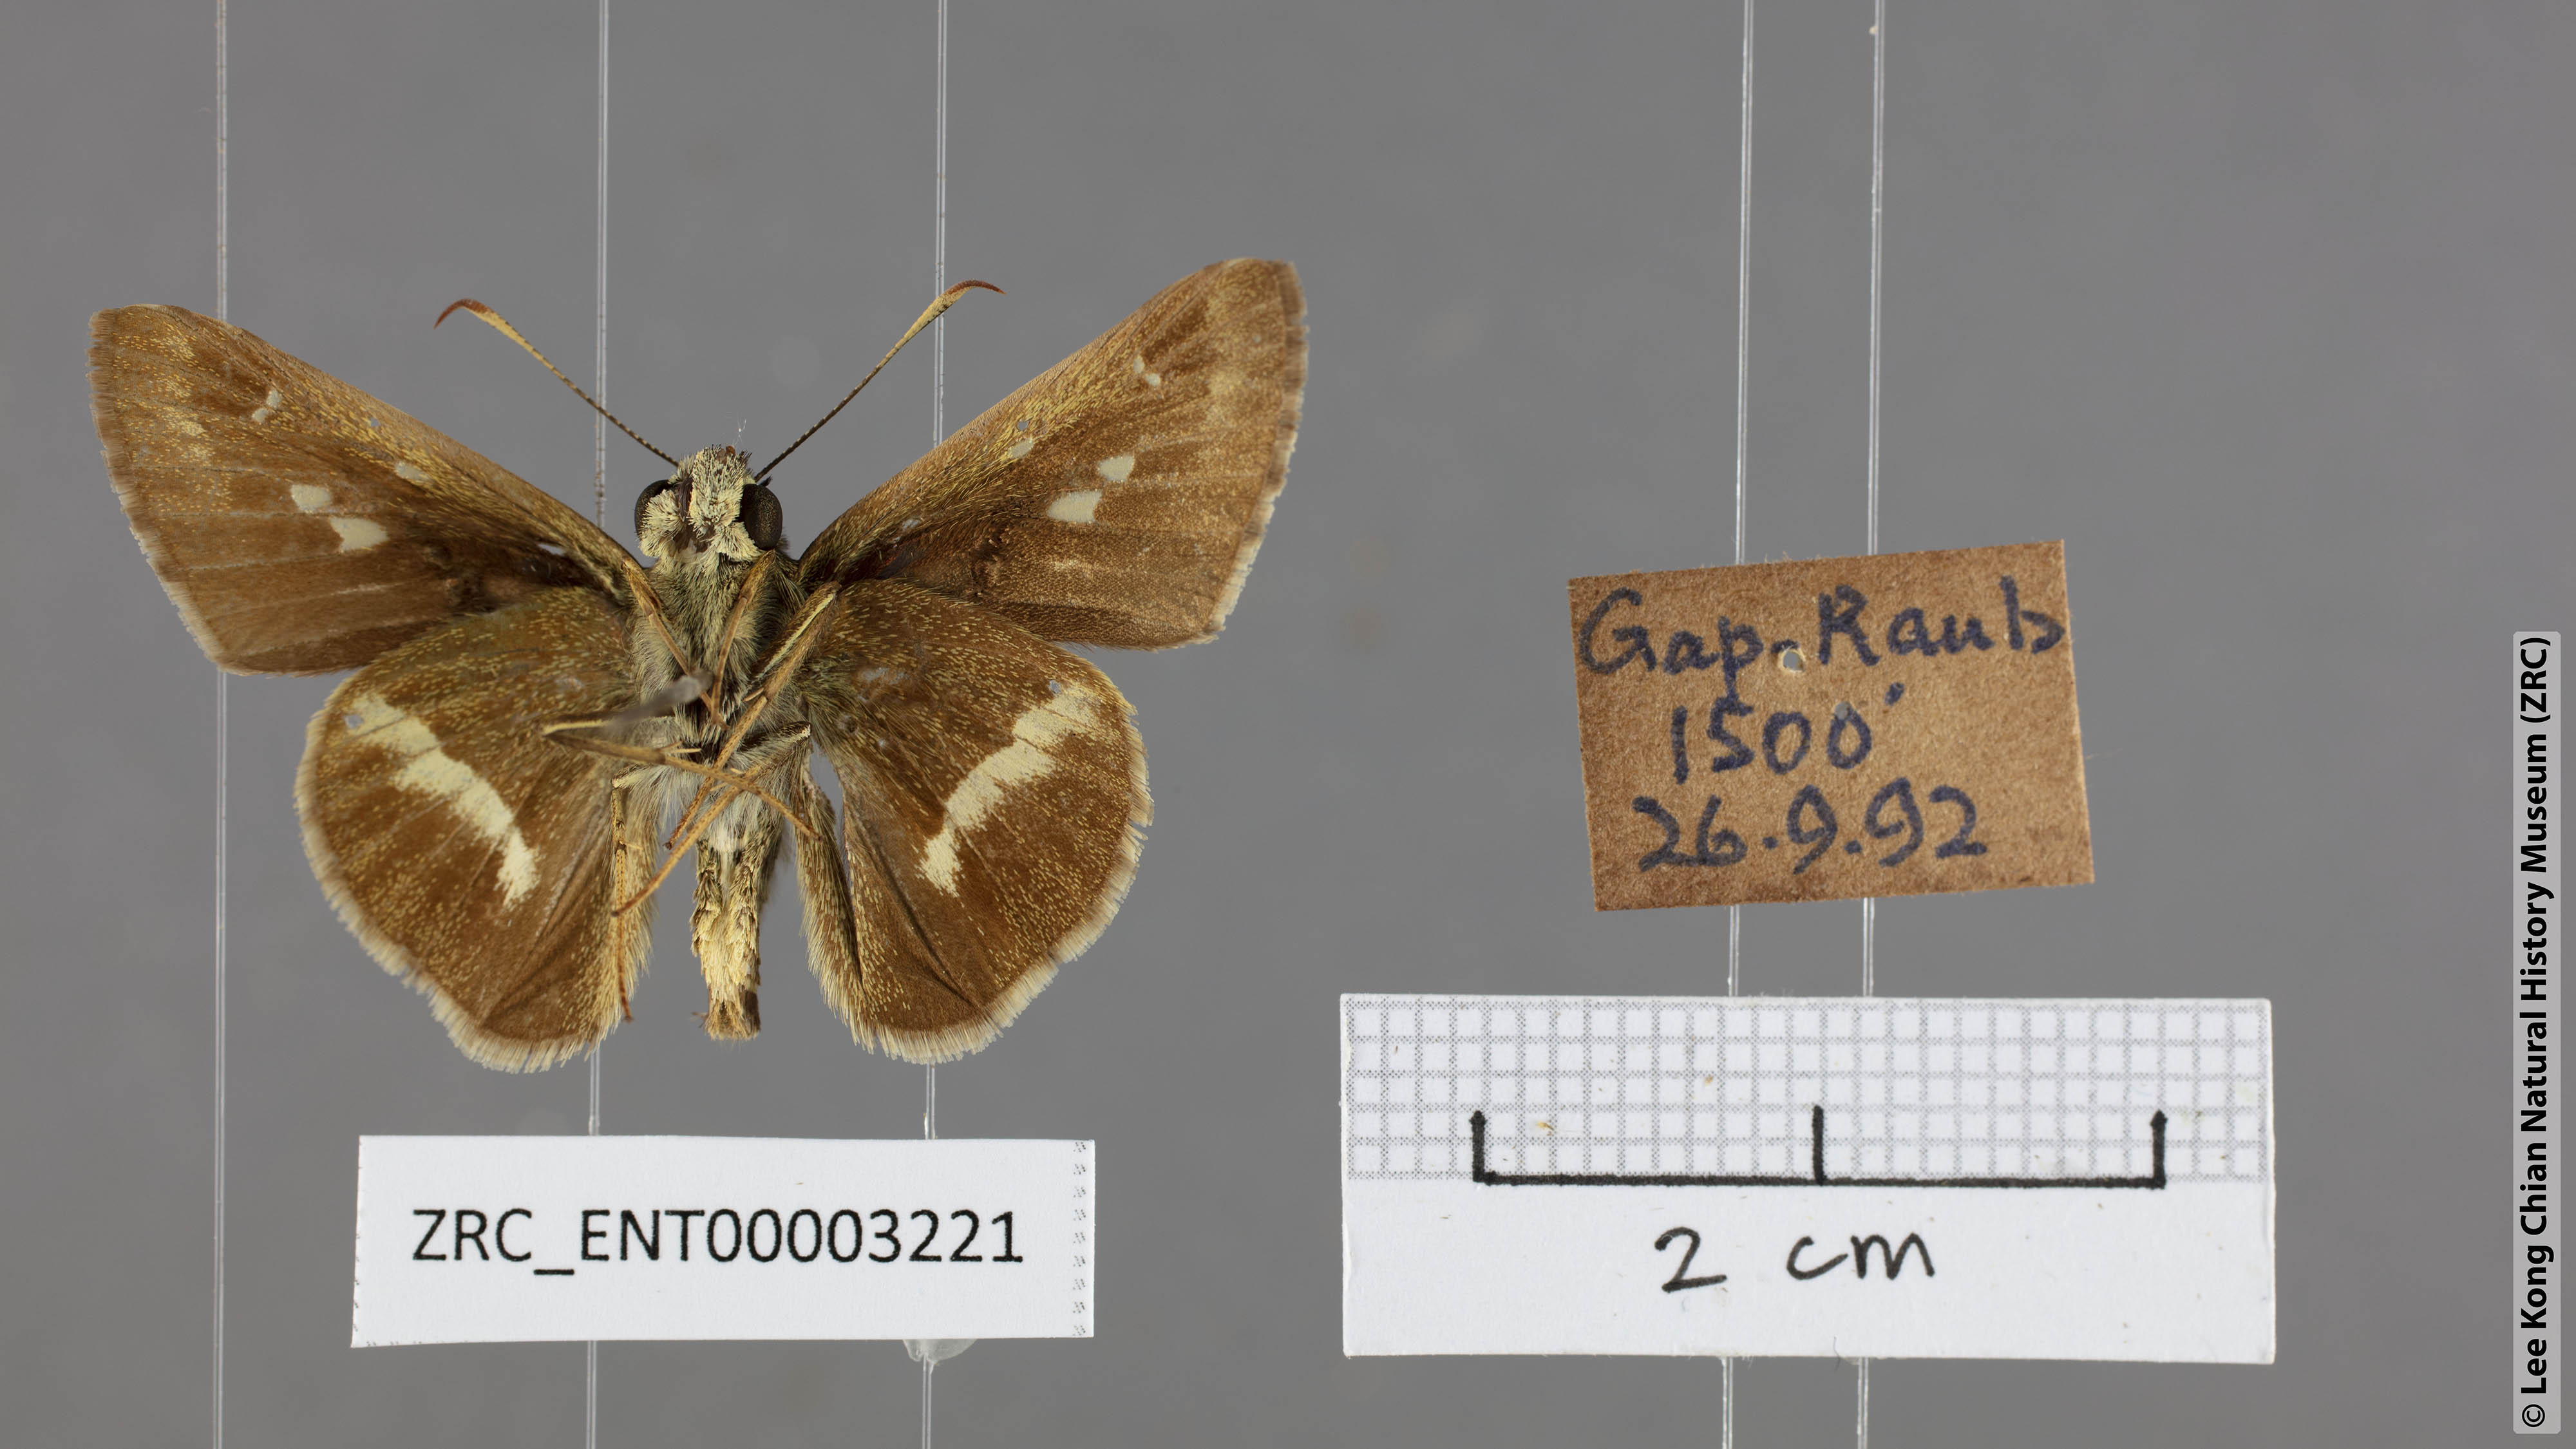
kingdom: Animalia
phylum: Arthropoda
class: Insecta
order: Lepidoptera
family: Hesperiidae
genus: Halpe
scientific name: Halpe elana
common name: Narrow-banded ace
